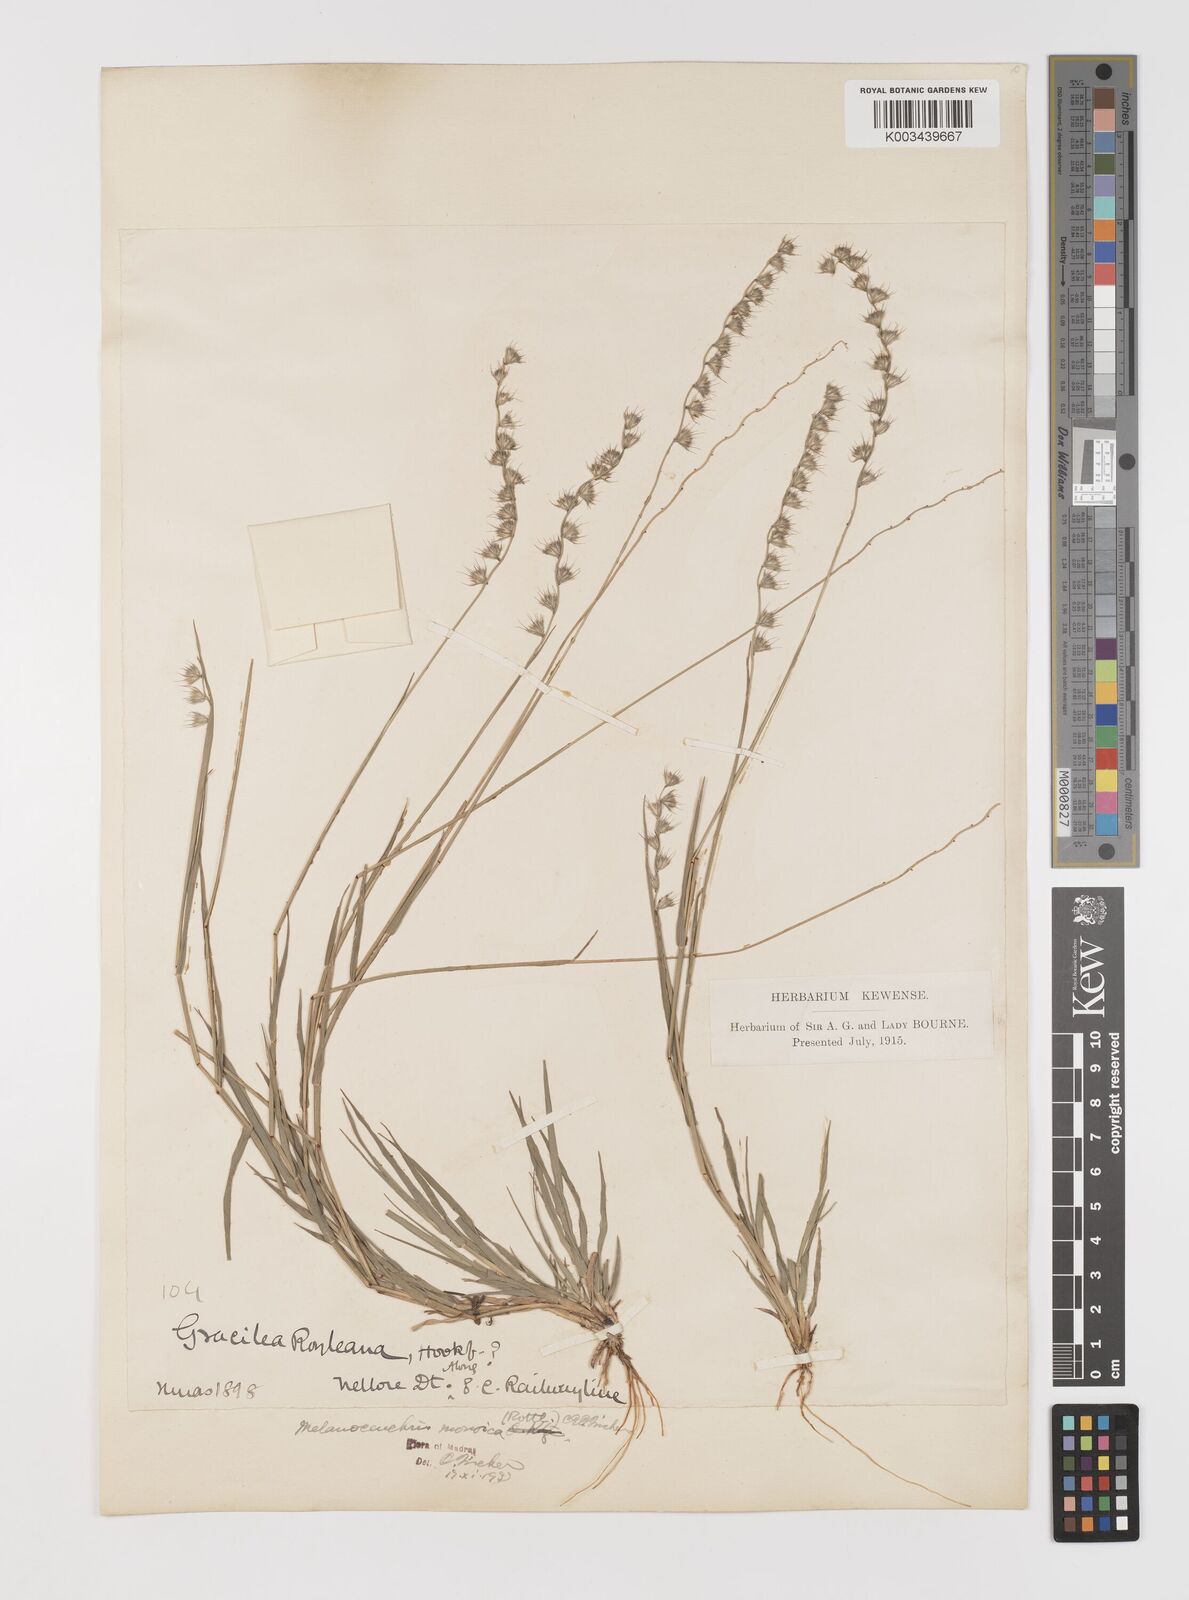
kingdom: Plantae
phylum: Tracheophyta
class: Liliopsida
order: Poales
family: Poaceae
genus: Melanocenchris
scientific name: Melanocenchris rothiana
